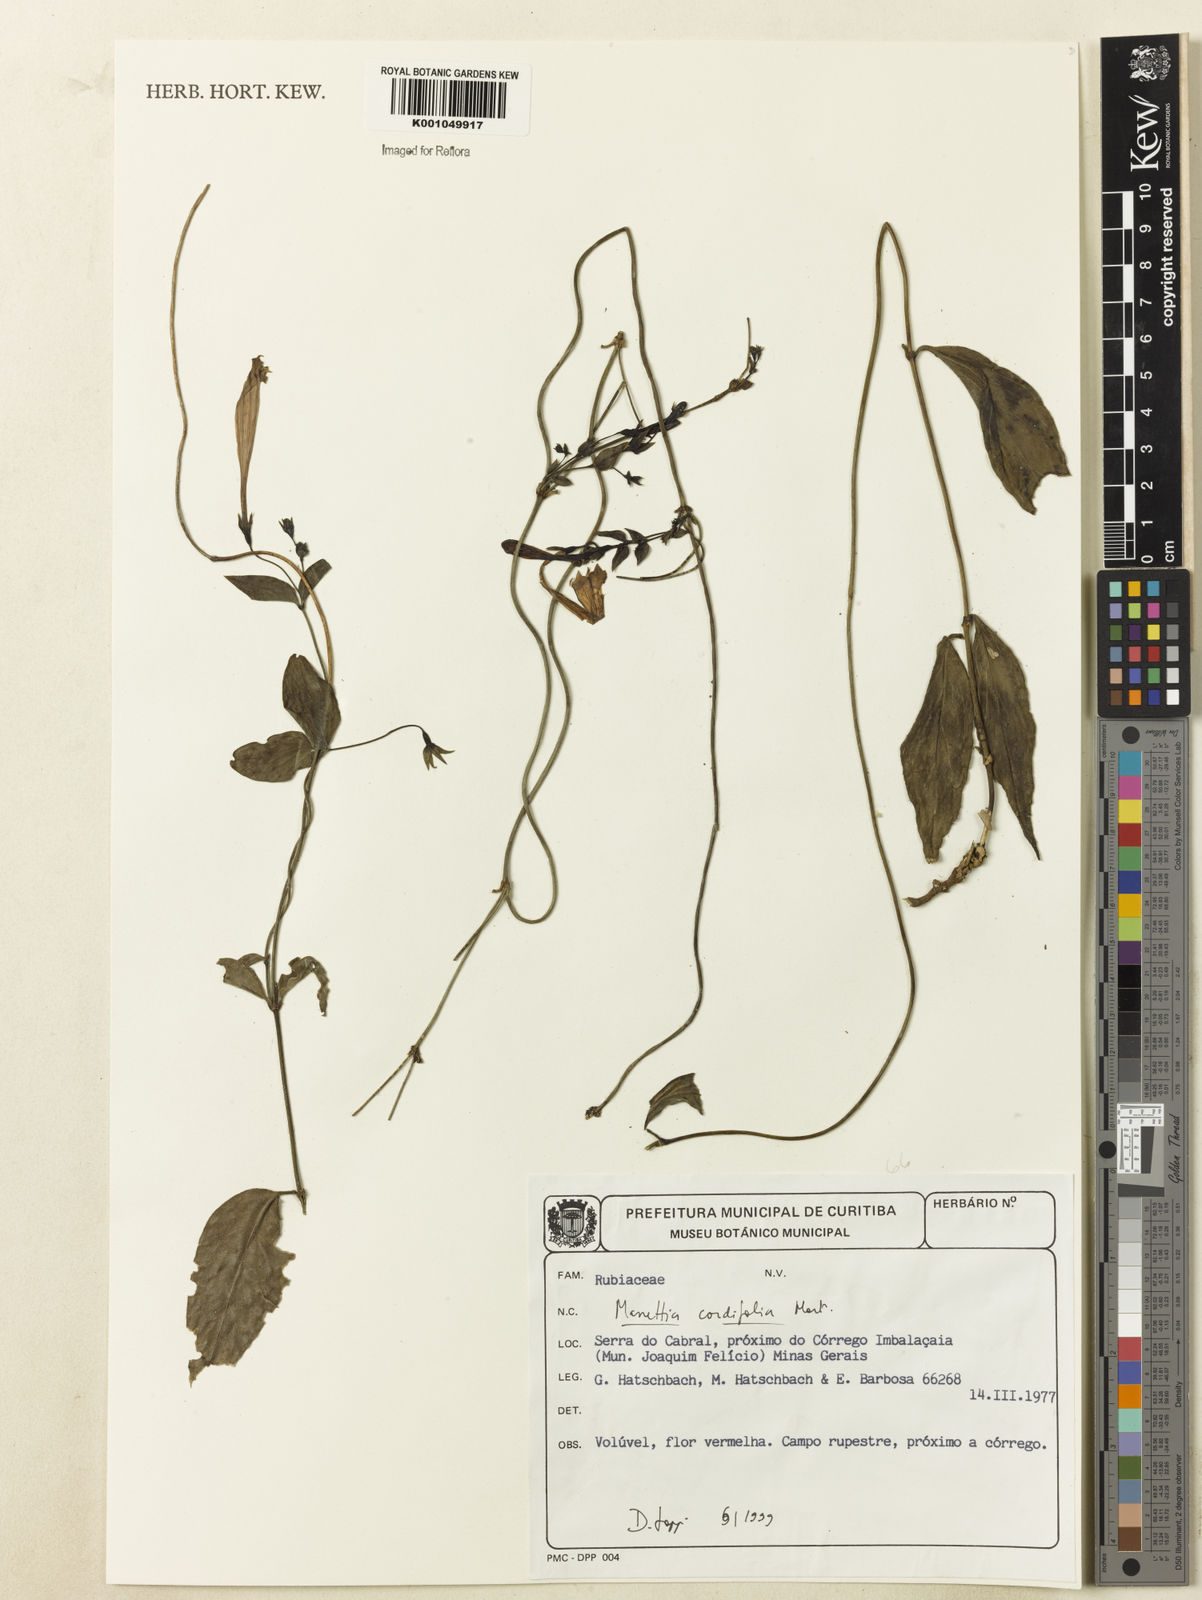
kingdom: Plantae
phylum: Tracheophyta
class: Magnoliopsida
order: Gentianales
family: Rubiaceae
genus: Manettia
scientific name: Manettia cordifolia
